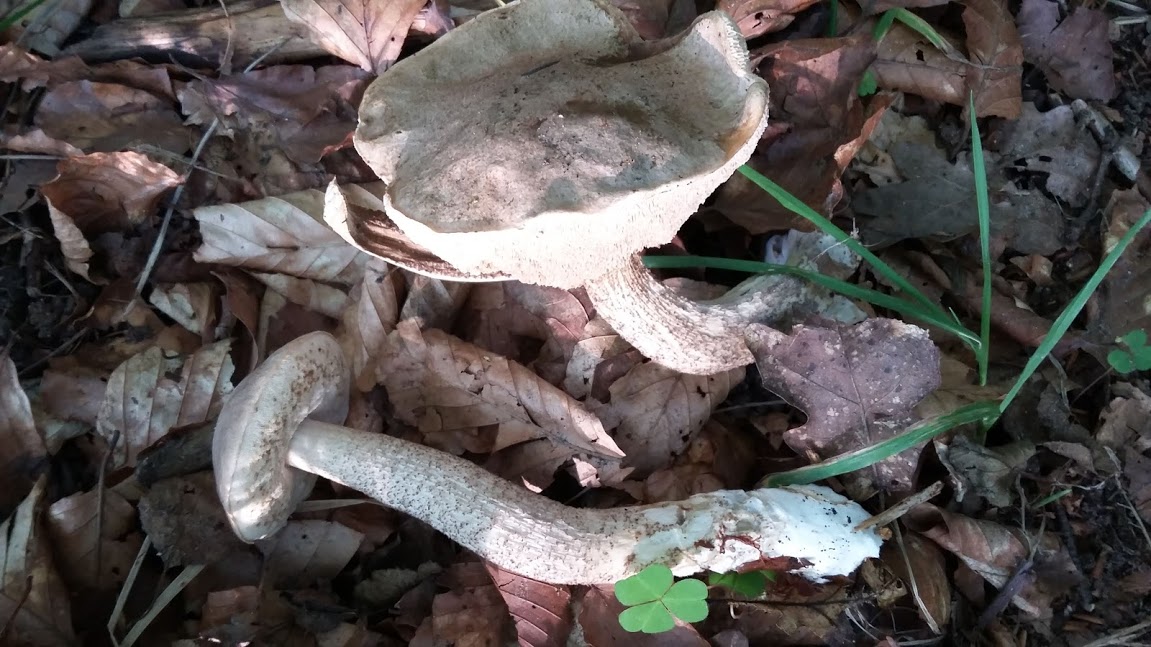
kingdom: Fungi
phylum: Basidiomycota
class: Agaricomycetes
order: Boletales
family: Boletaceae
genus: Leccinum
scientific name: Leccinum
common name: skælrørhat
